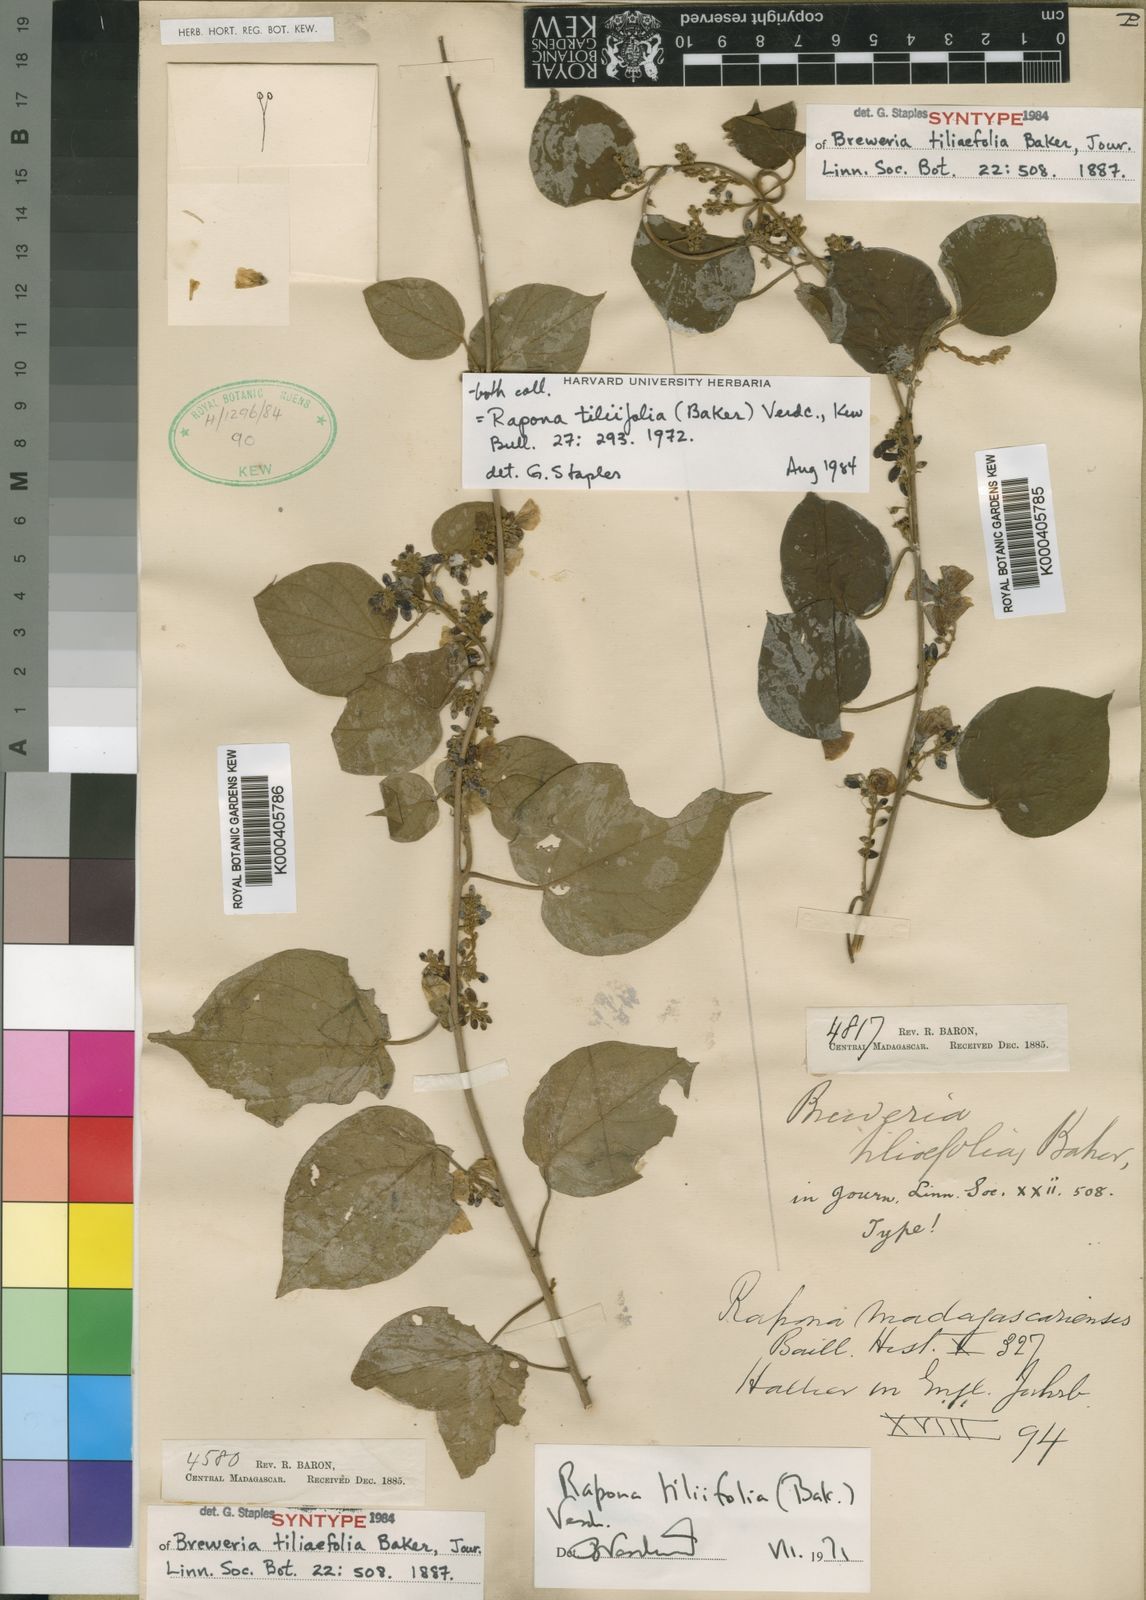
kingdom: Plantae
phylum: Tracheophyta
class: Magnoliopsida
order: Solanales
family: Convolvulaceae
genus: Rapona
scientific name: Rapona tiliifolia
